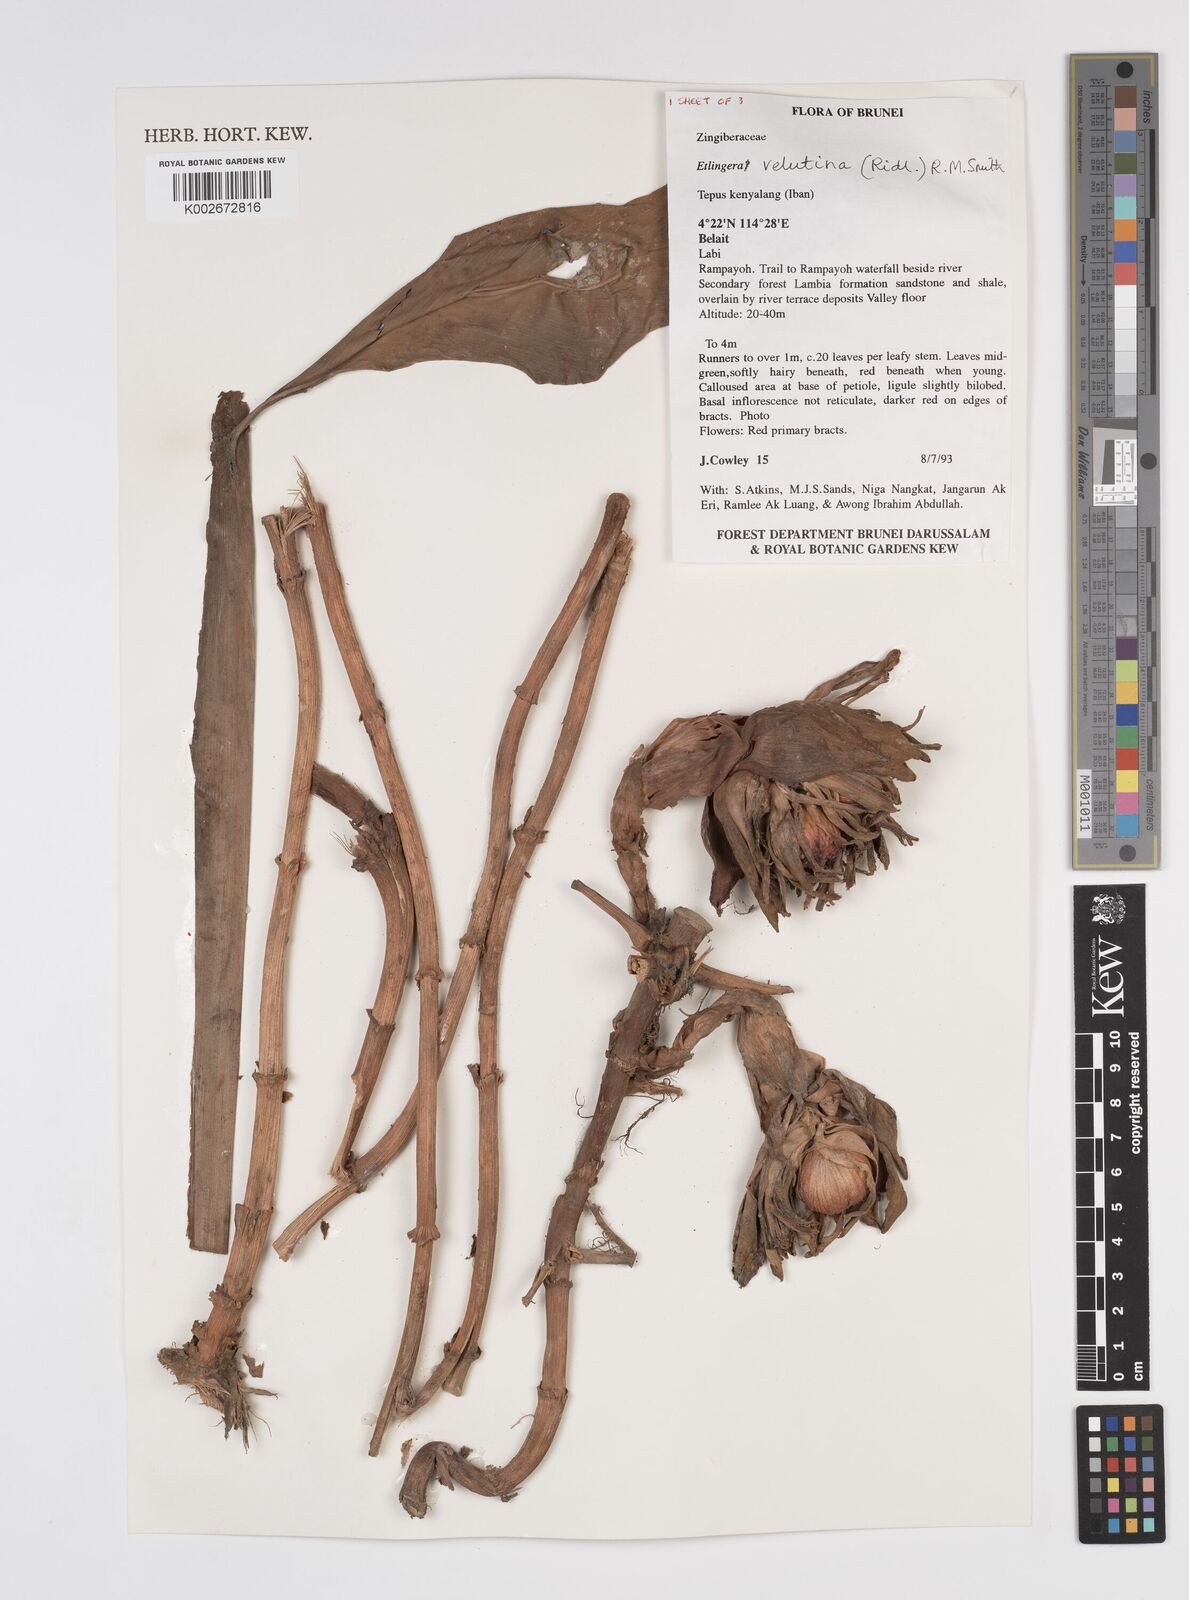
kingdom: Plantae
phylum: Tracheophyta
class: Liliopsida
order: Zingiberales
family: Zingiberaceae
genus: Etlingera
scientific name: Etlingera velutina
